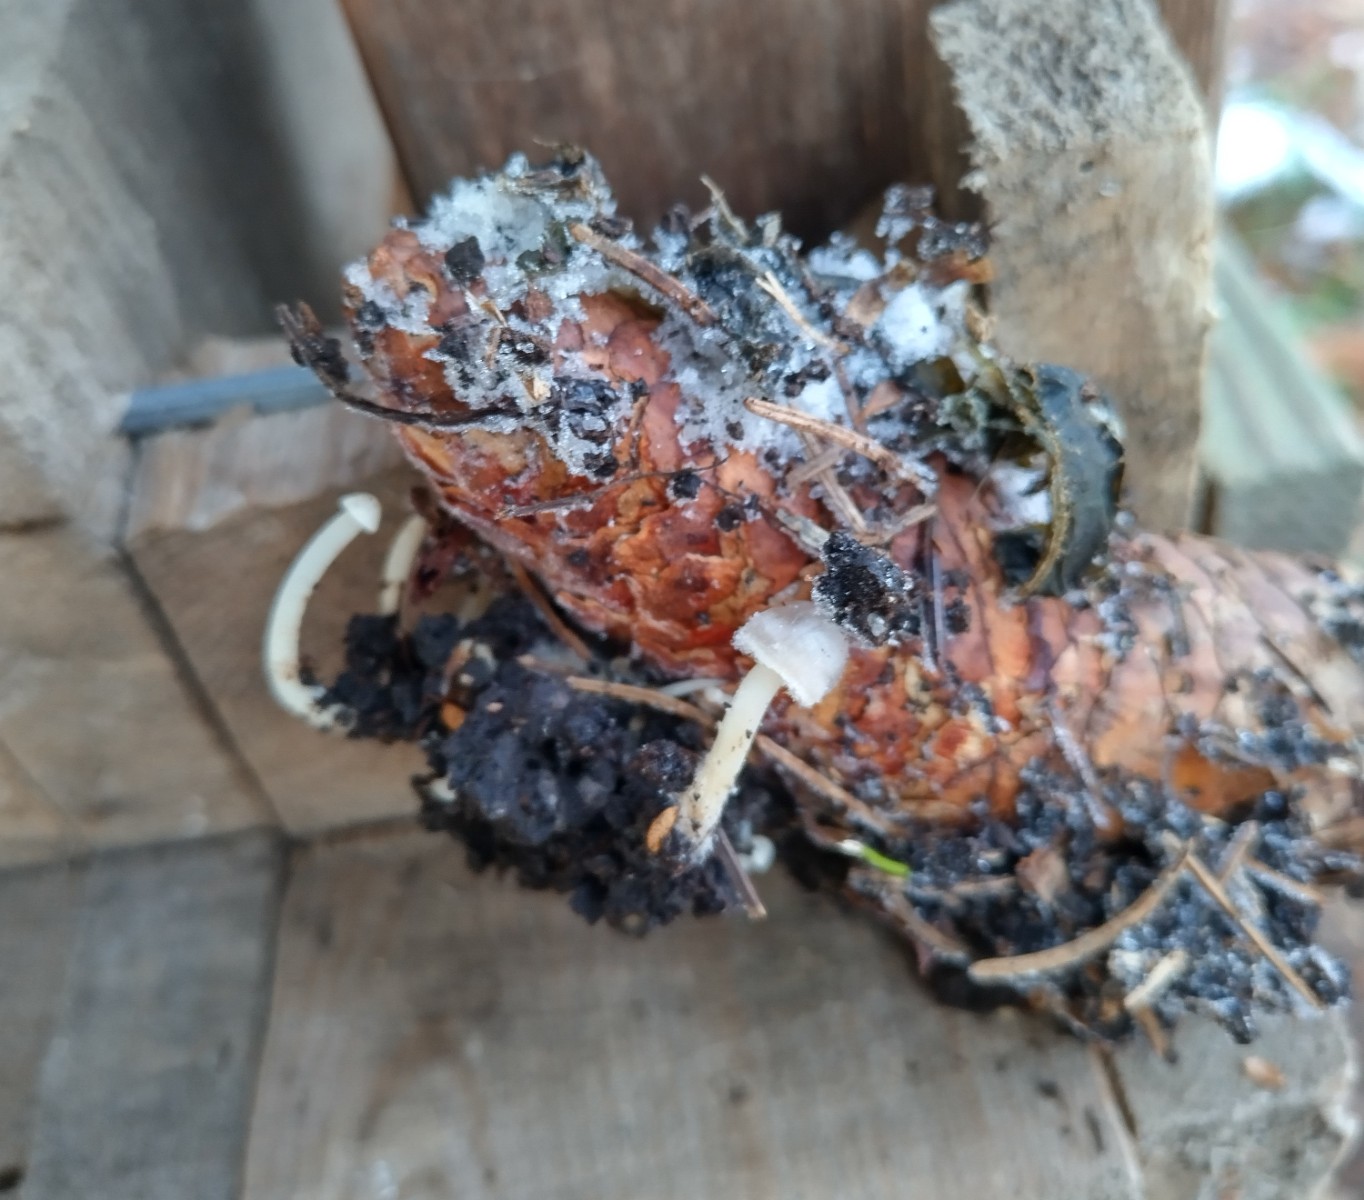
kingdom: Fungi
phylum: Basidiomycota
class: Agaricomycetes
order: Agaricales
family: Marasmiaceae
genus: Baeospora
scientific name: Baeospora myosura
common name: koglebruskhat
